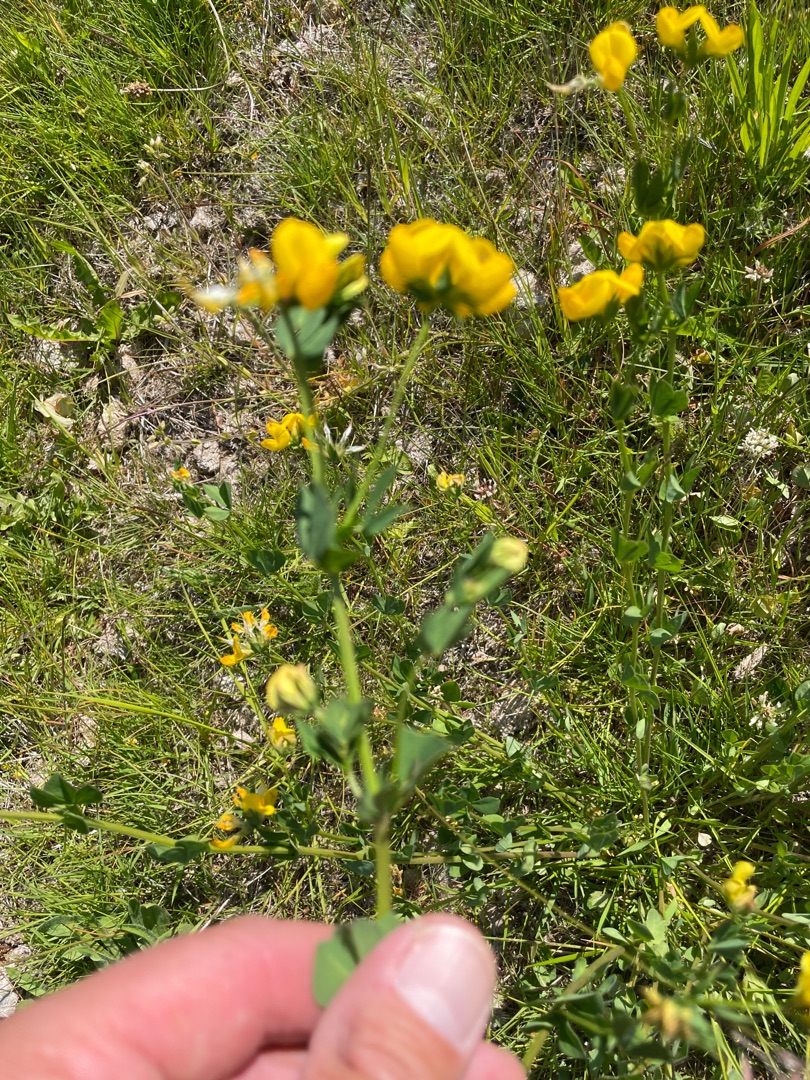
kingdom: Plantae
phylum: Tracheophyta
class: Magnoliopsida
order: Fabales
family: Fabaceae
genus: Lotus
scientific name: Lotus corniculatus
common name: Almindelig kællingetand
